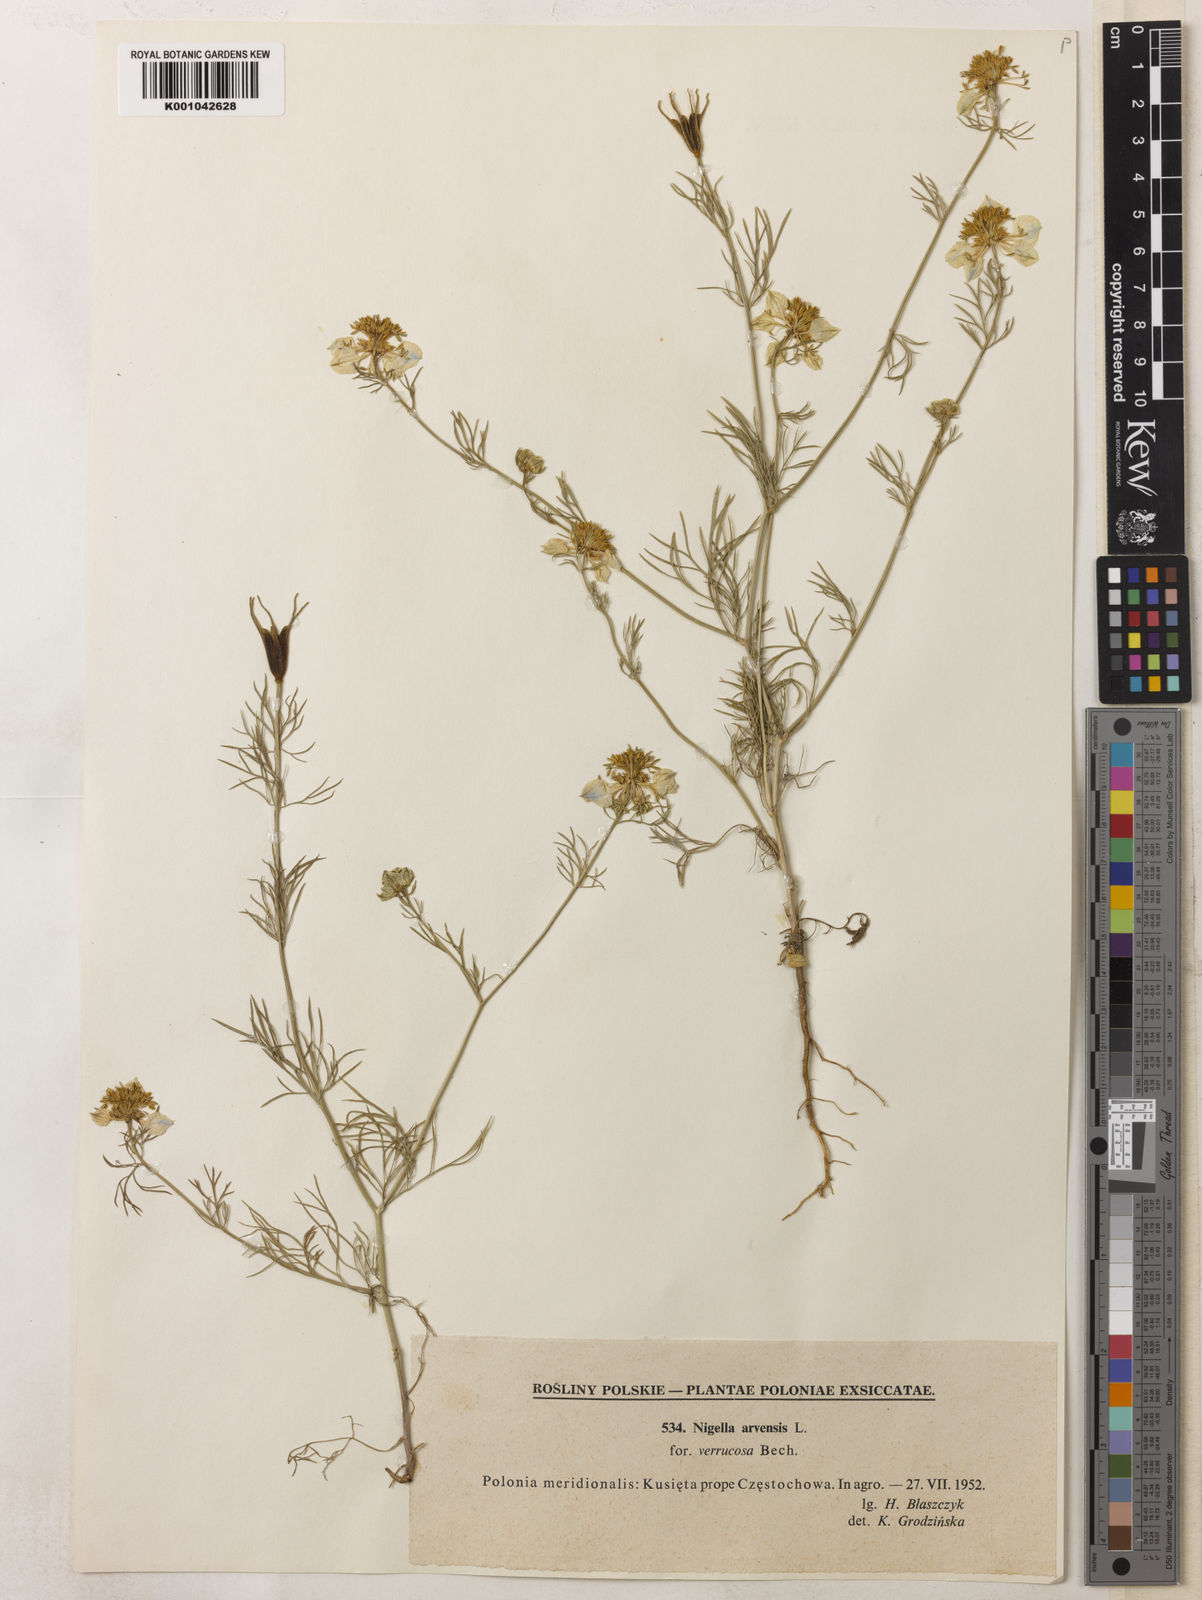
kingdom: Plantae
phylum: Tracheophyta
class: Magnoliopsida
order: Ranunculales
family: Ranunculaceae
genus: Nigella
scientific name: Nigella arvensis
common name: Wild fennel-flower
